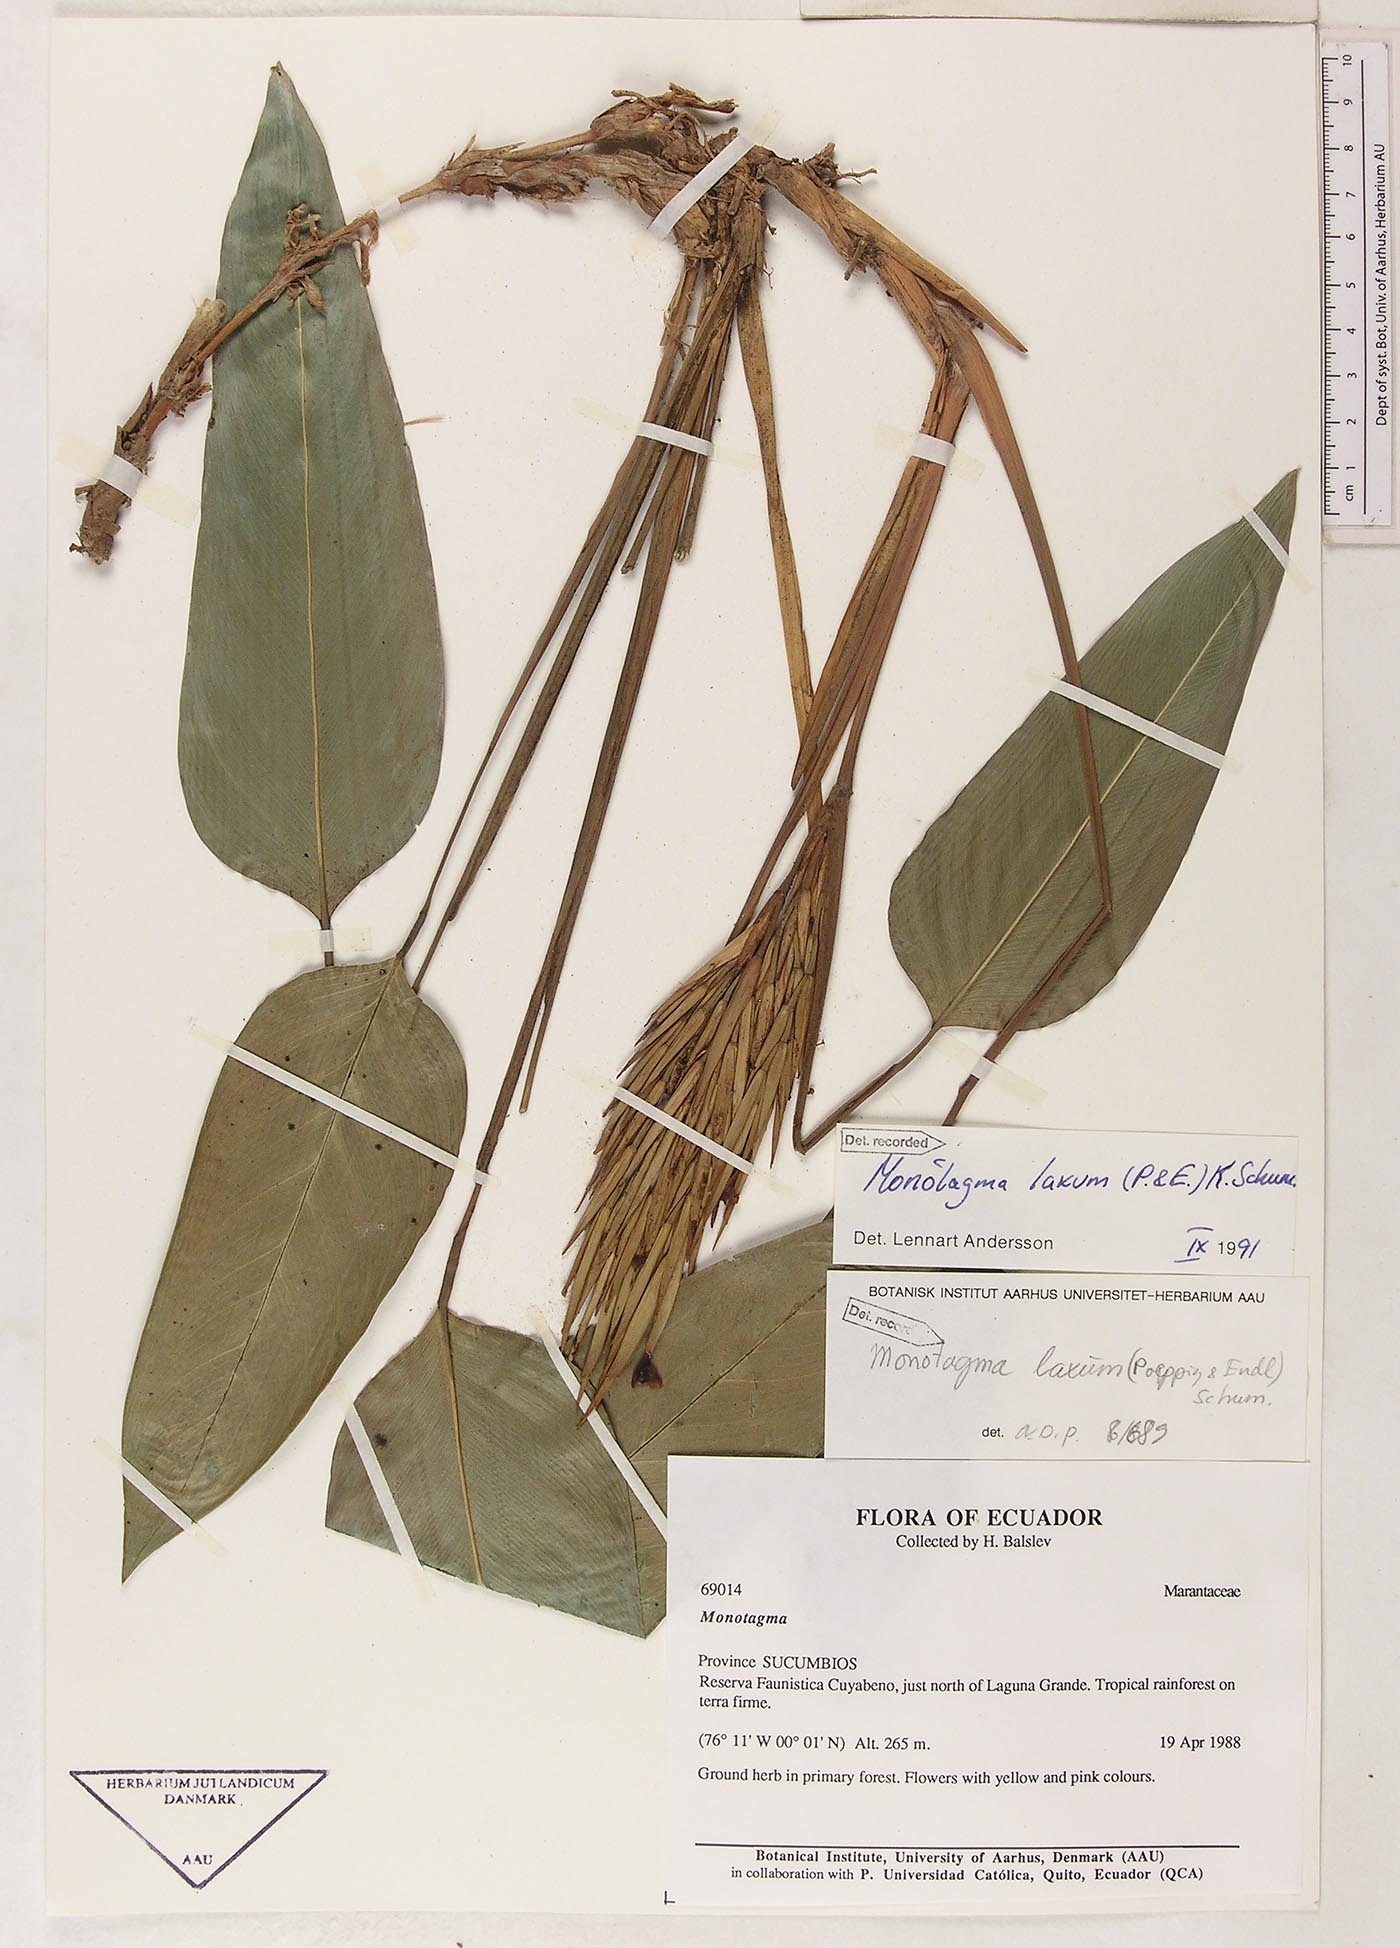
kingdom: Plantae
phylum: Tracheophyta
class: Liliopsida
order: Zingiberales
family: Marantaceae
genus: Monotagma
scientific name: Monotagma laxum
